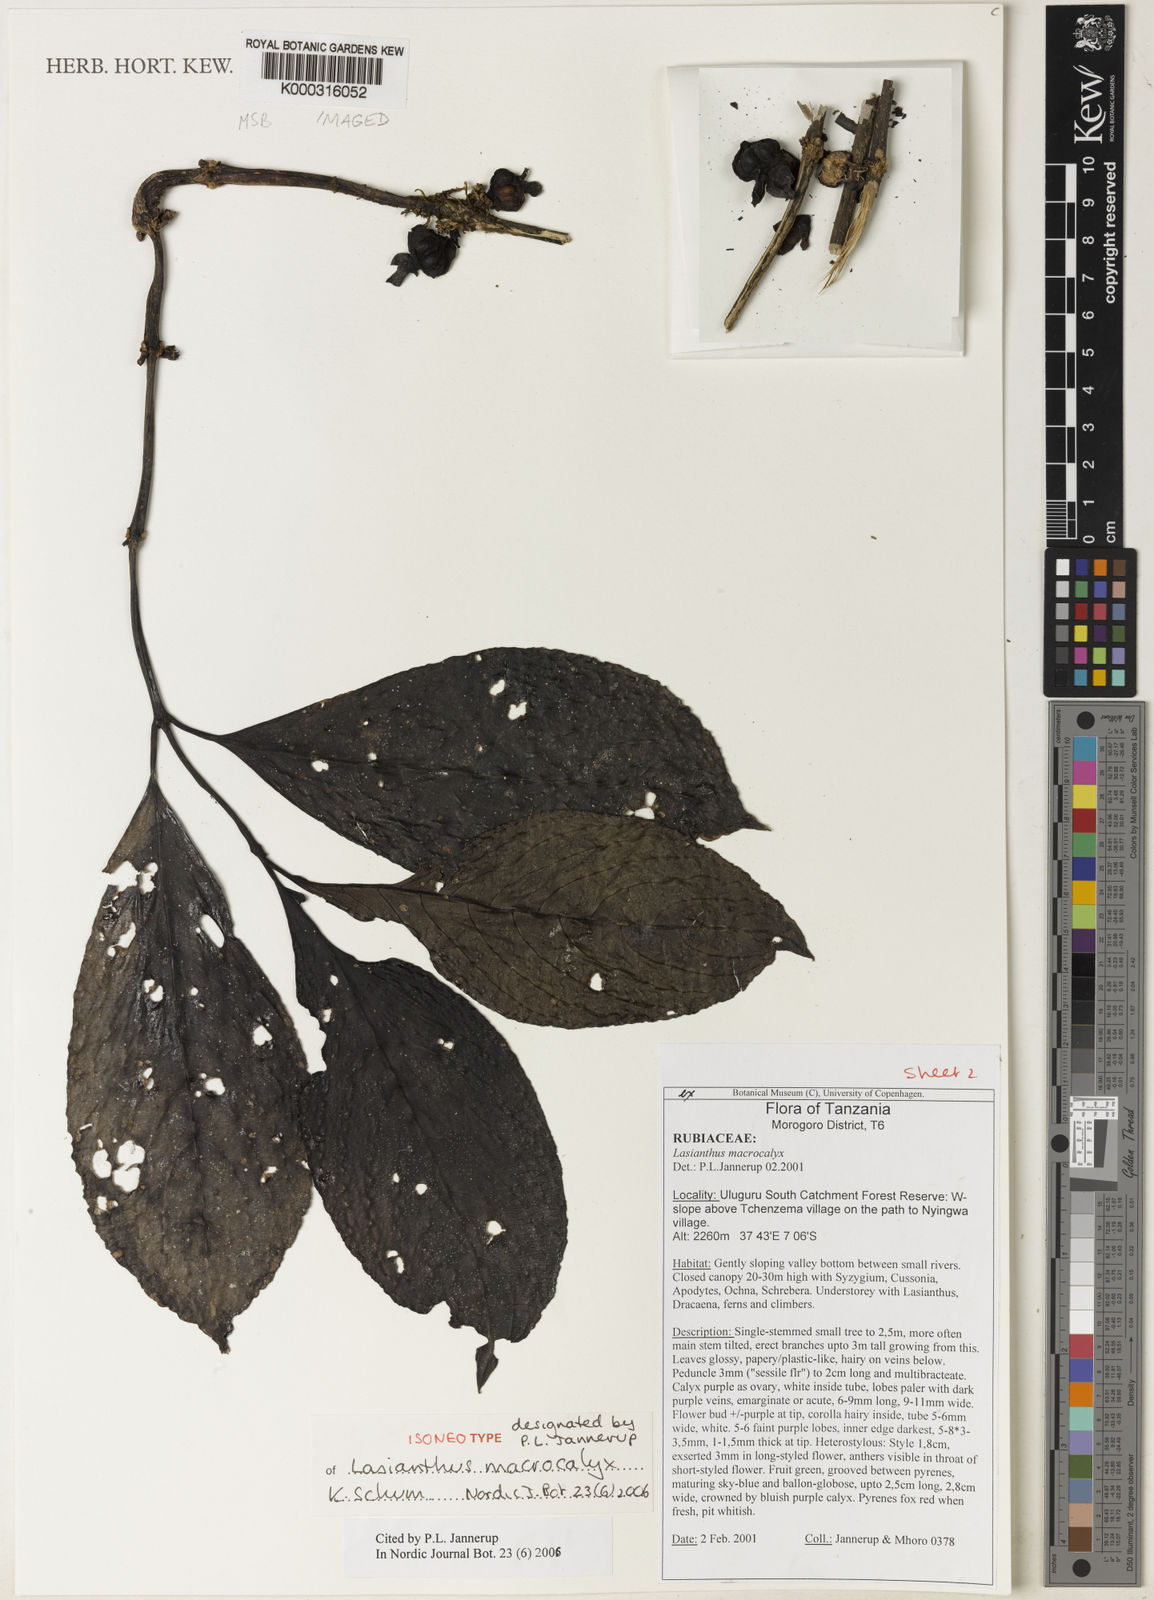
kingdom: Plantae
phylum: Tracheophyta
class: Magnoliopsida
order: Gentianales
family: Rubiaceae
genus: Lasianthus
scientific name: Lasianthus macrocalyx
